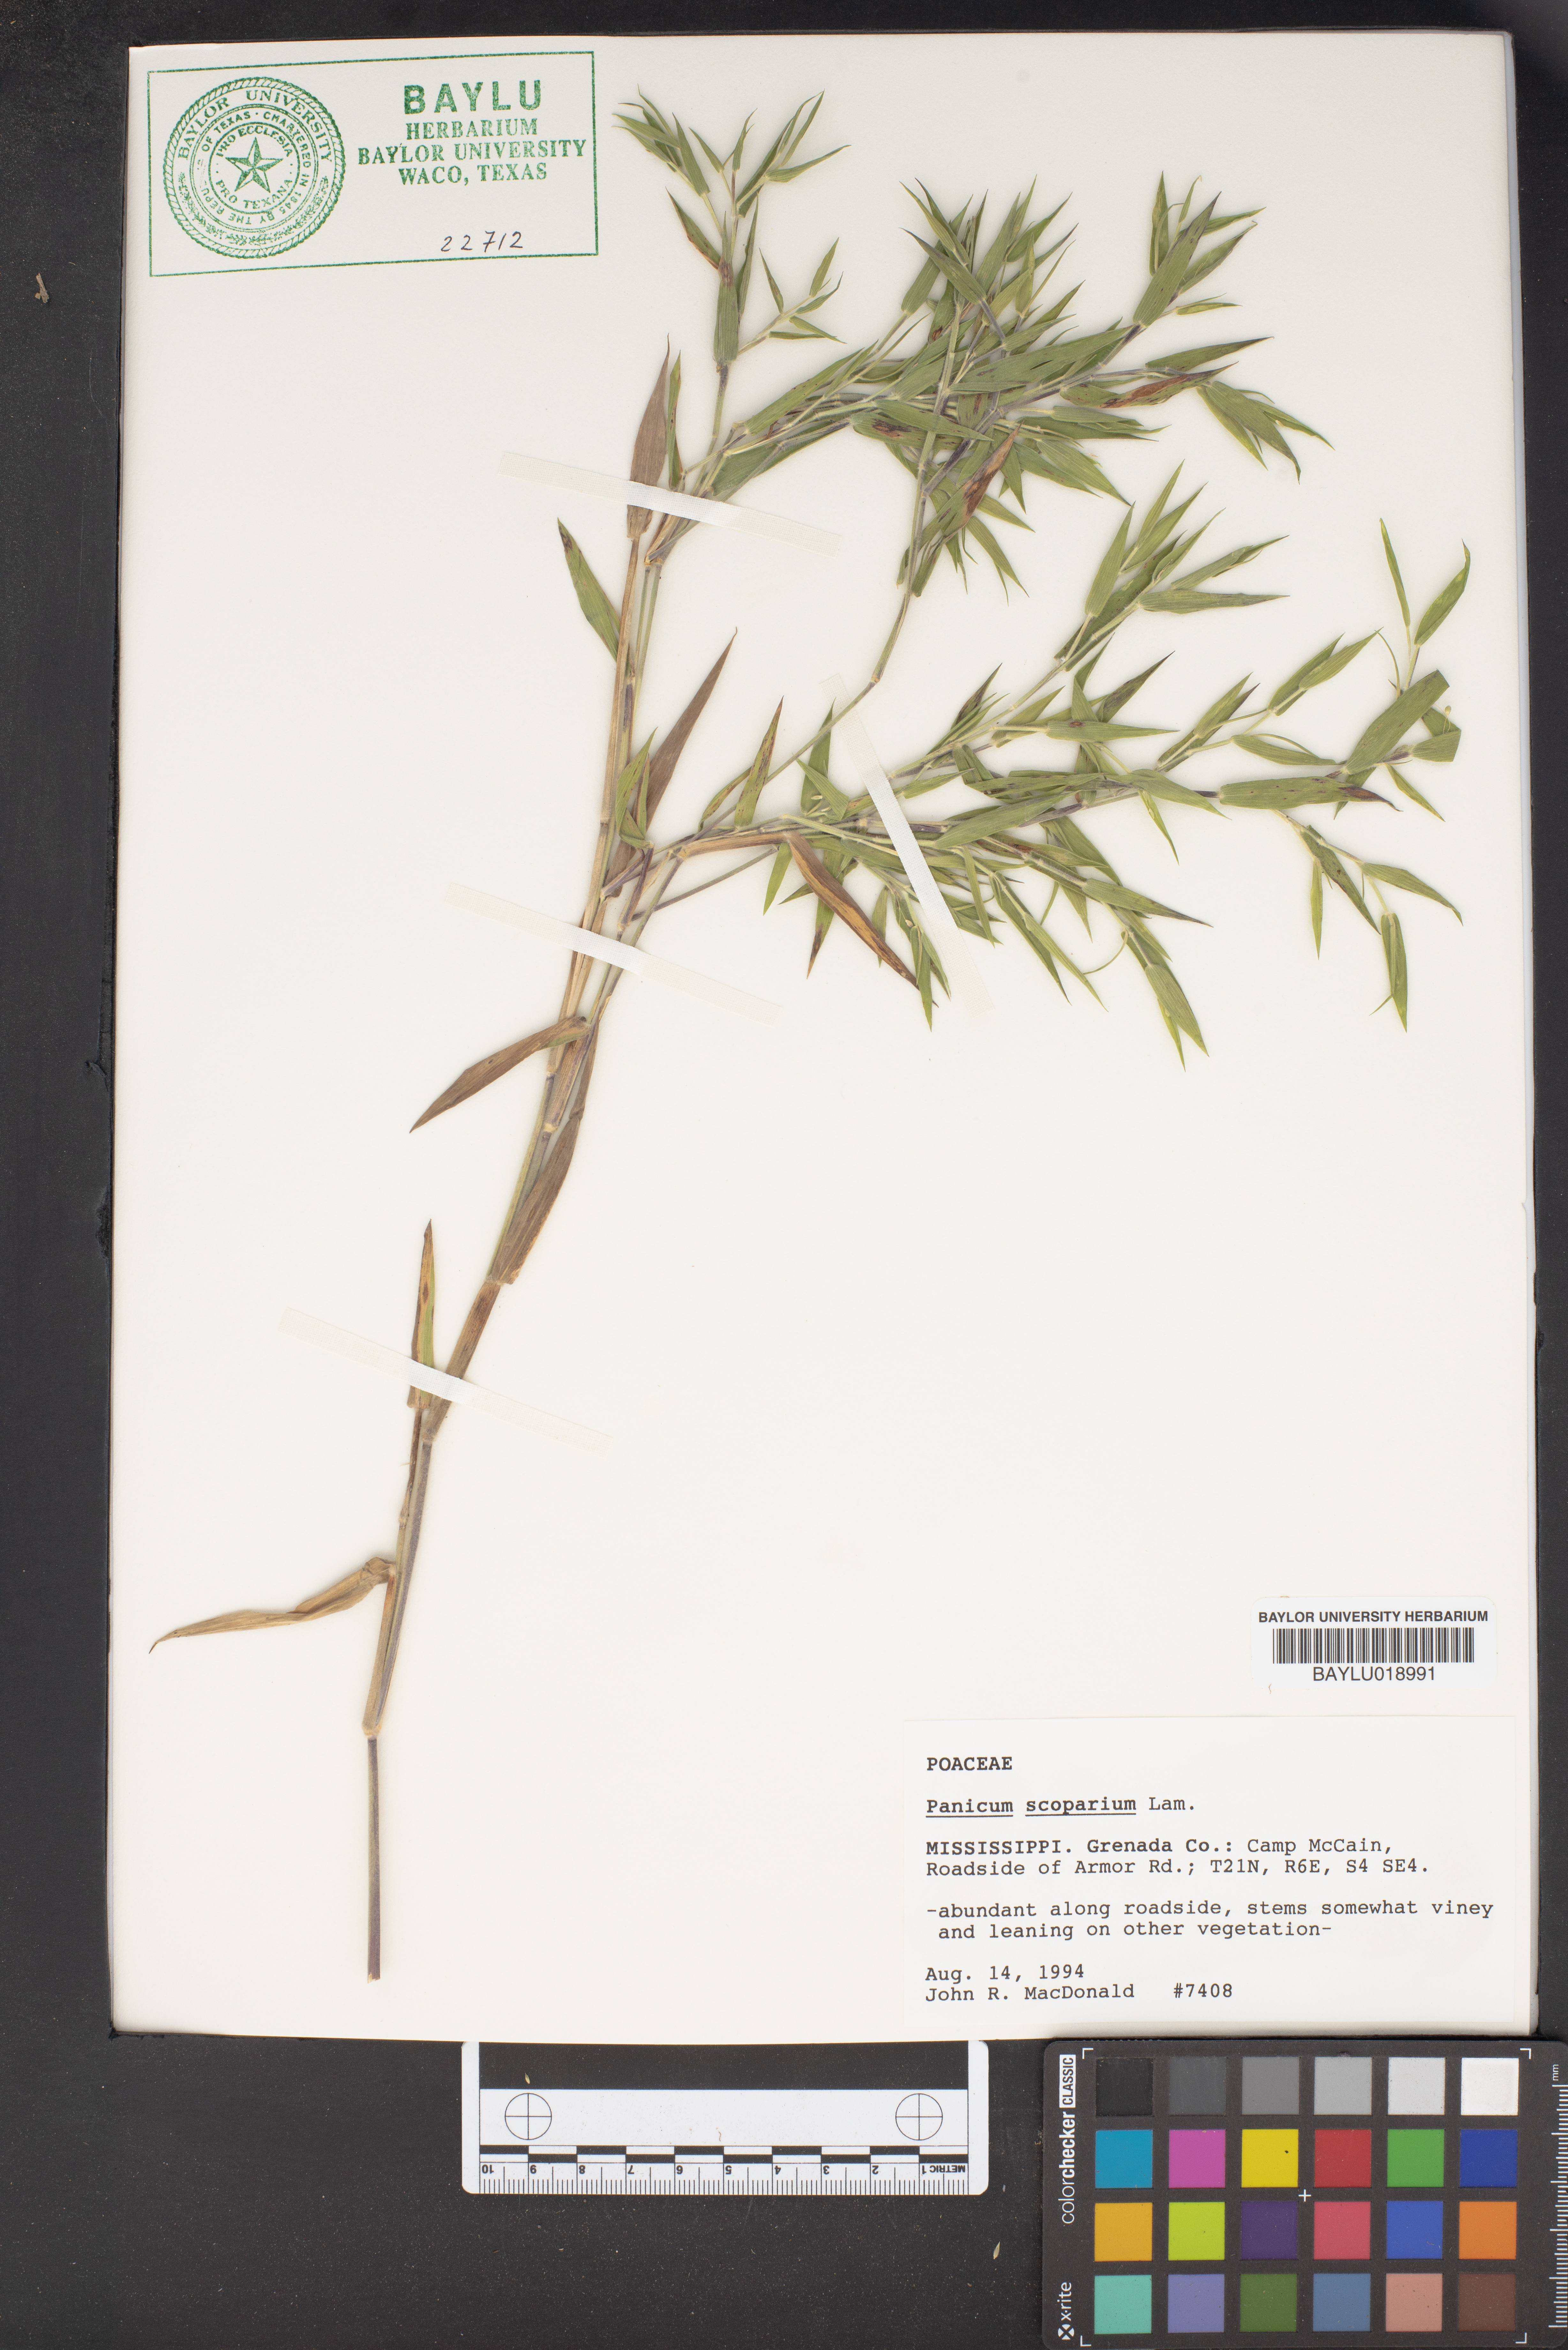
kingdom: Plantae
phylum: Tracheophyta
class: Liliopsida
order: Poales
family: Poaceae
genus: Dichanthelium
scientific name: Dichanthelium scribnerianum
